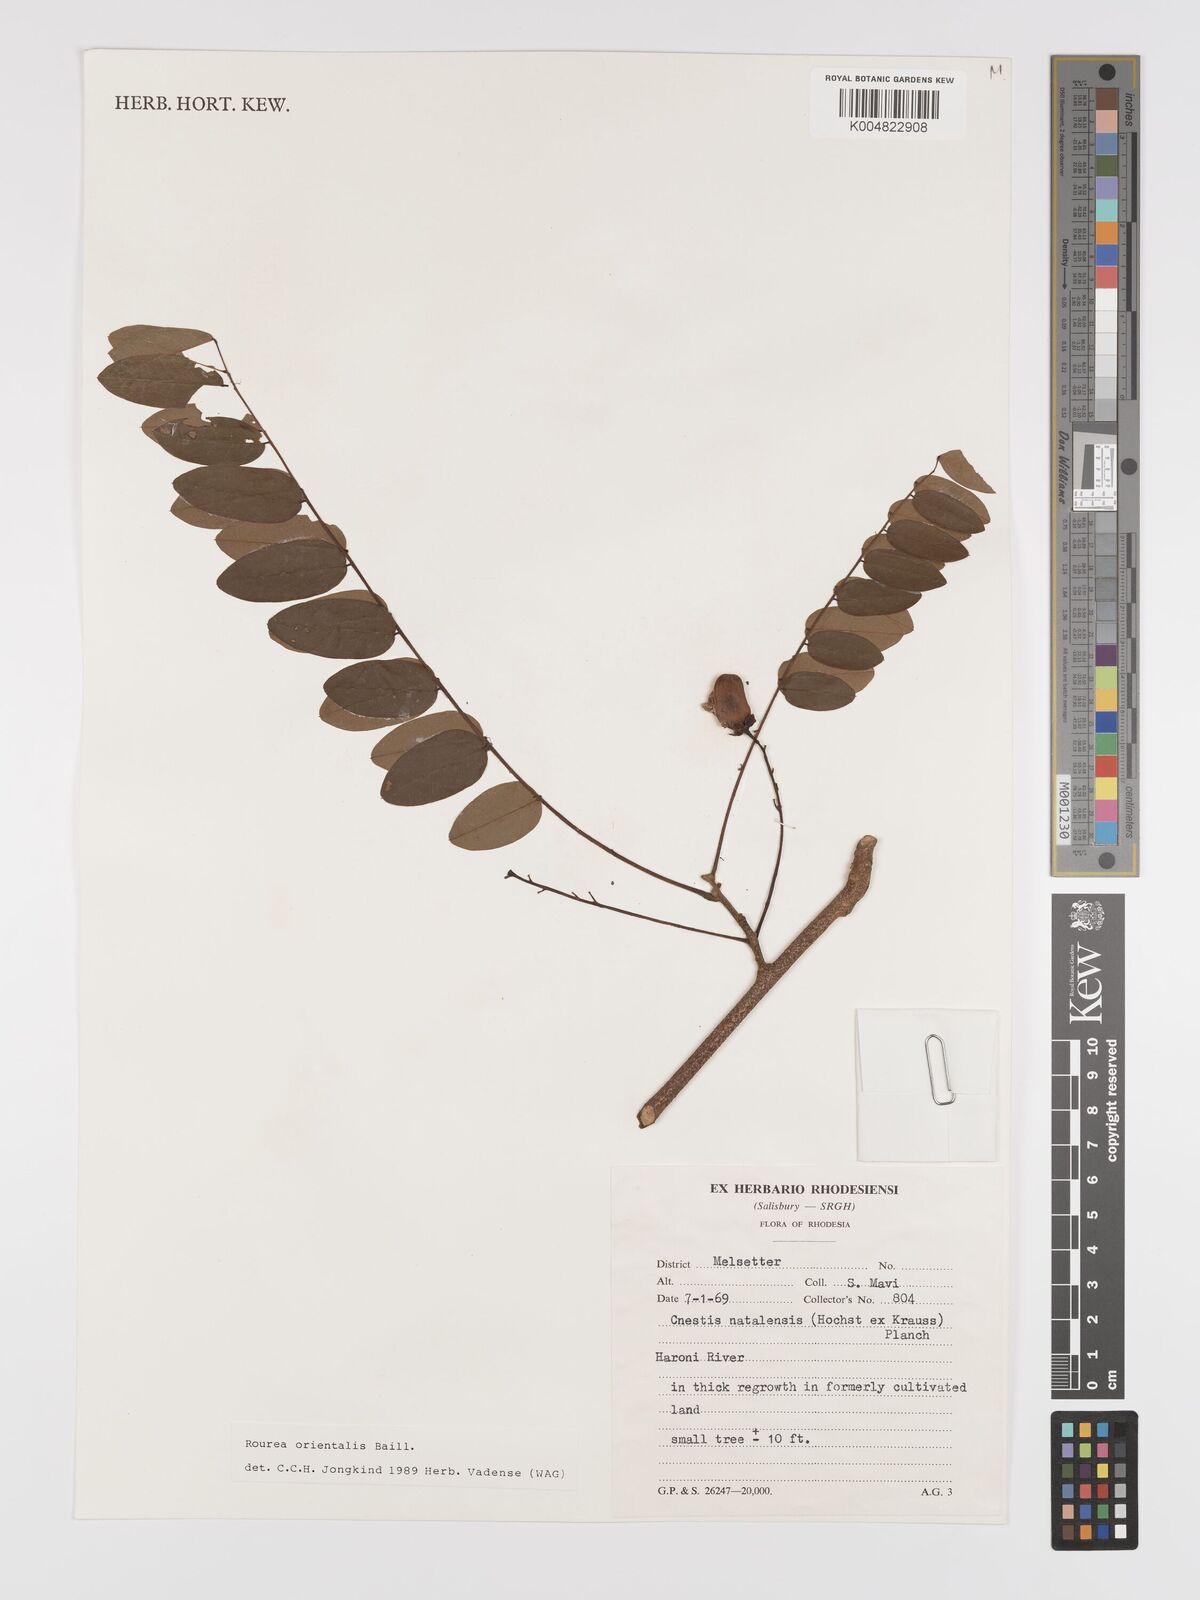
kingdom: Plantae
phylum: Tracheophyta
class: Magnoliopsida
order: Oxalidales
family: Connaraceae
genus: Rourea
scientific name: Rourea orientalis
